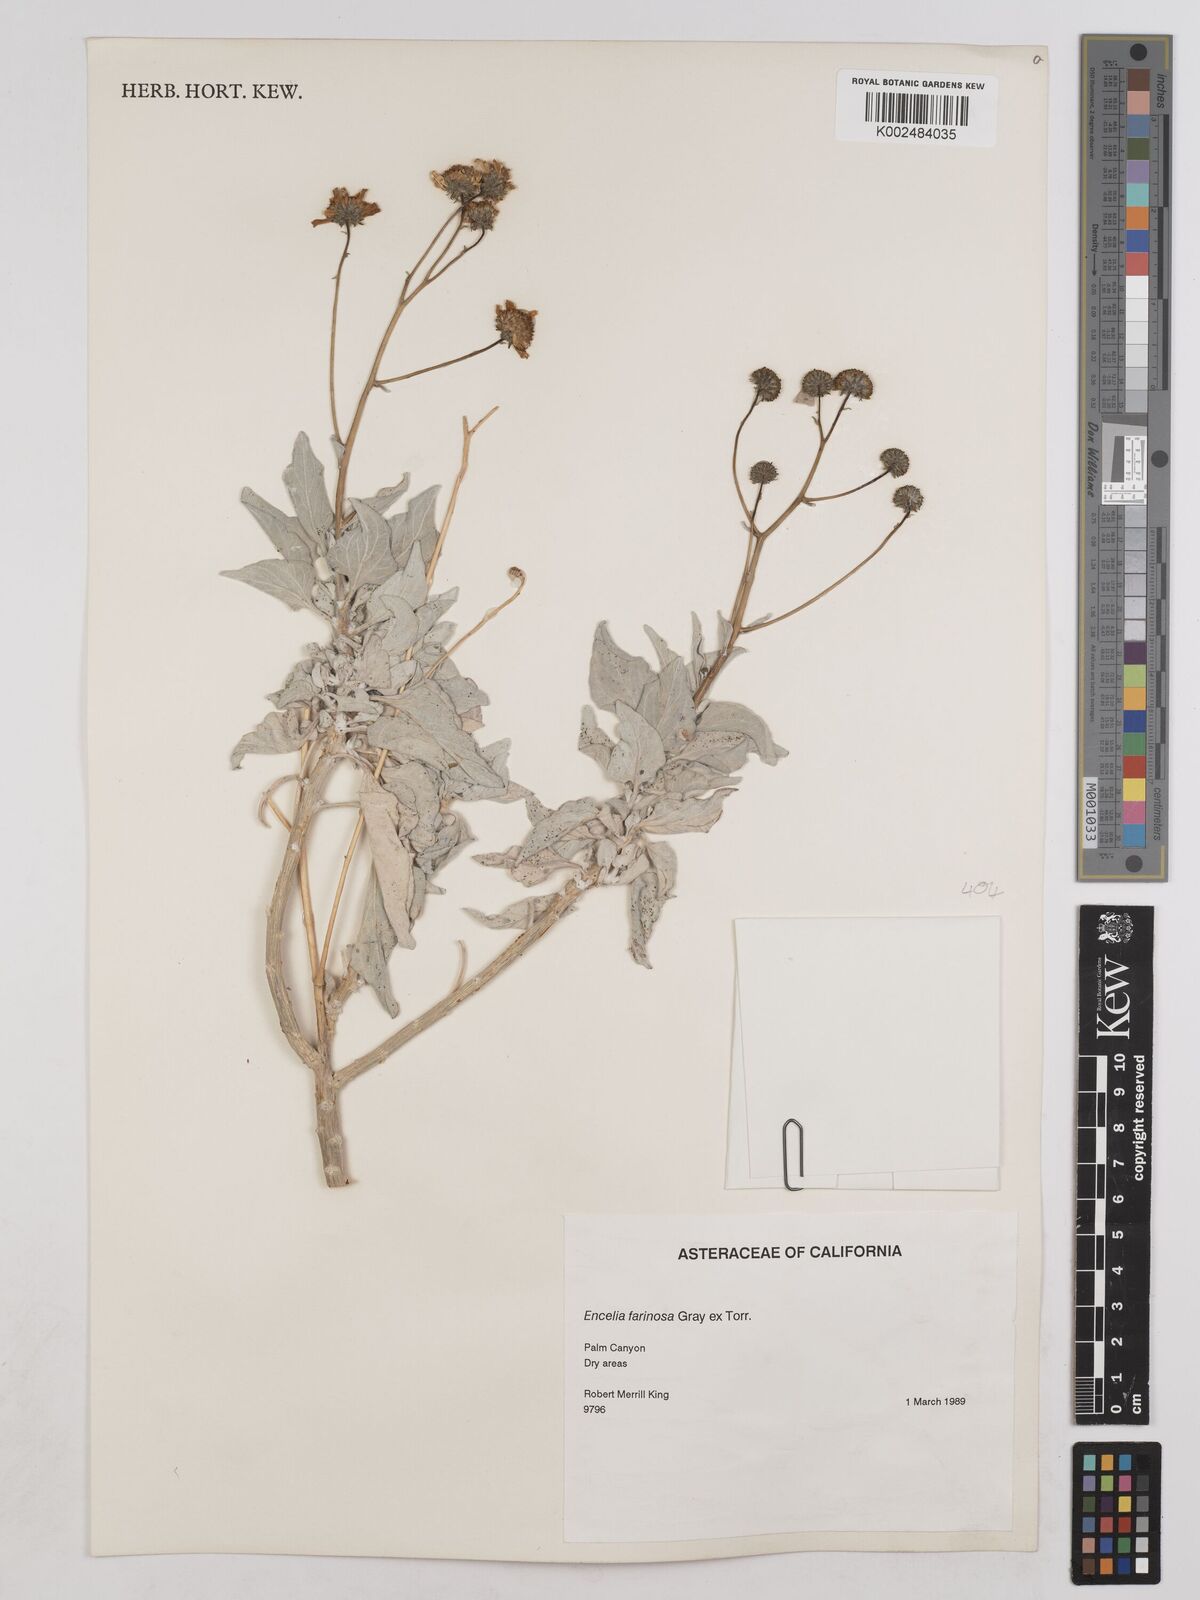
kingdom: Plantae
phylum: Tracheophyta
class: Magnoliopsida
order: Asterales
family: Asteraceae
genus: Encelia
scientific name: Encelia farinosa
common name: Brittlebush
